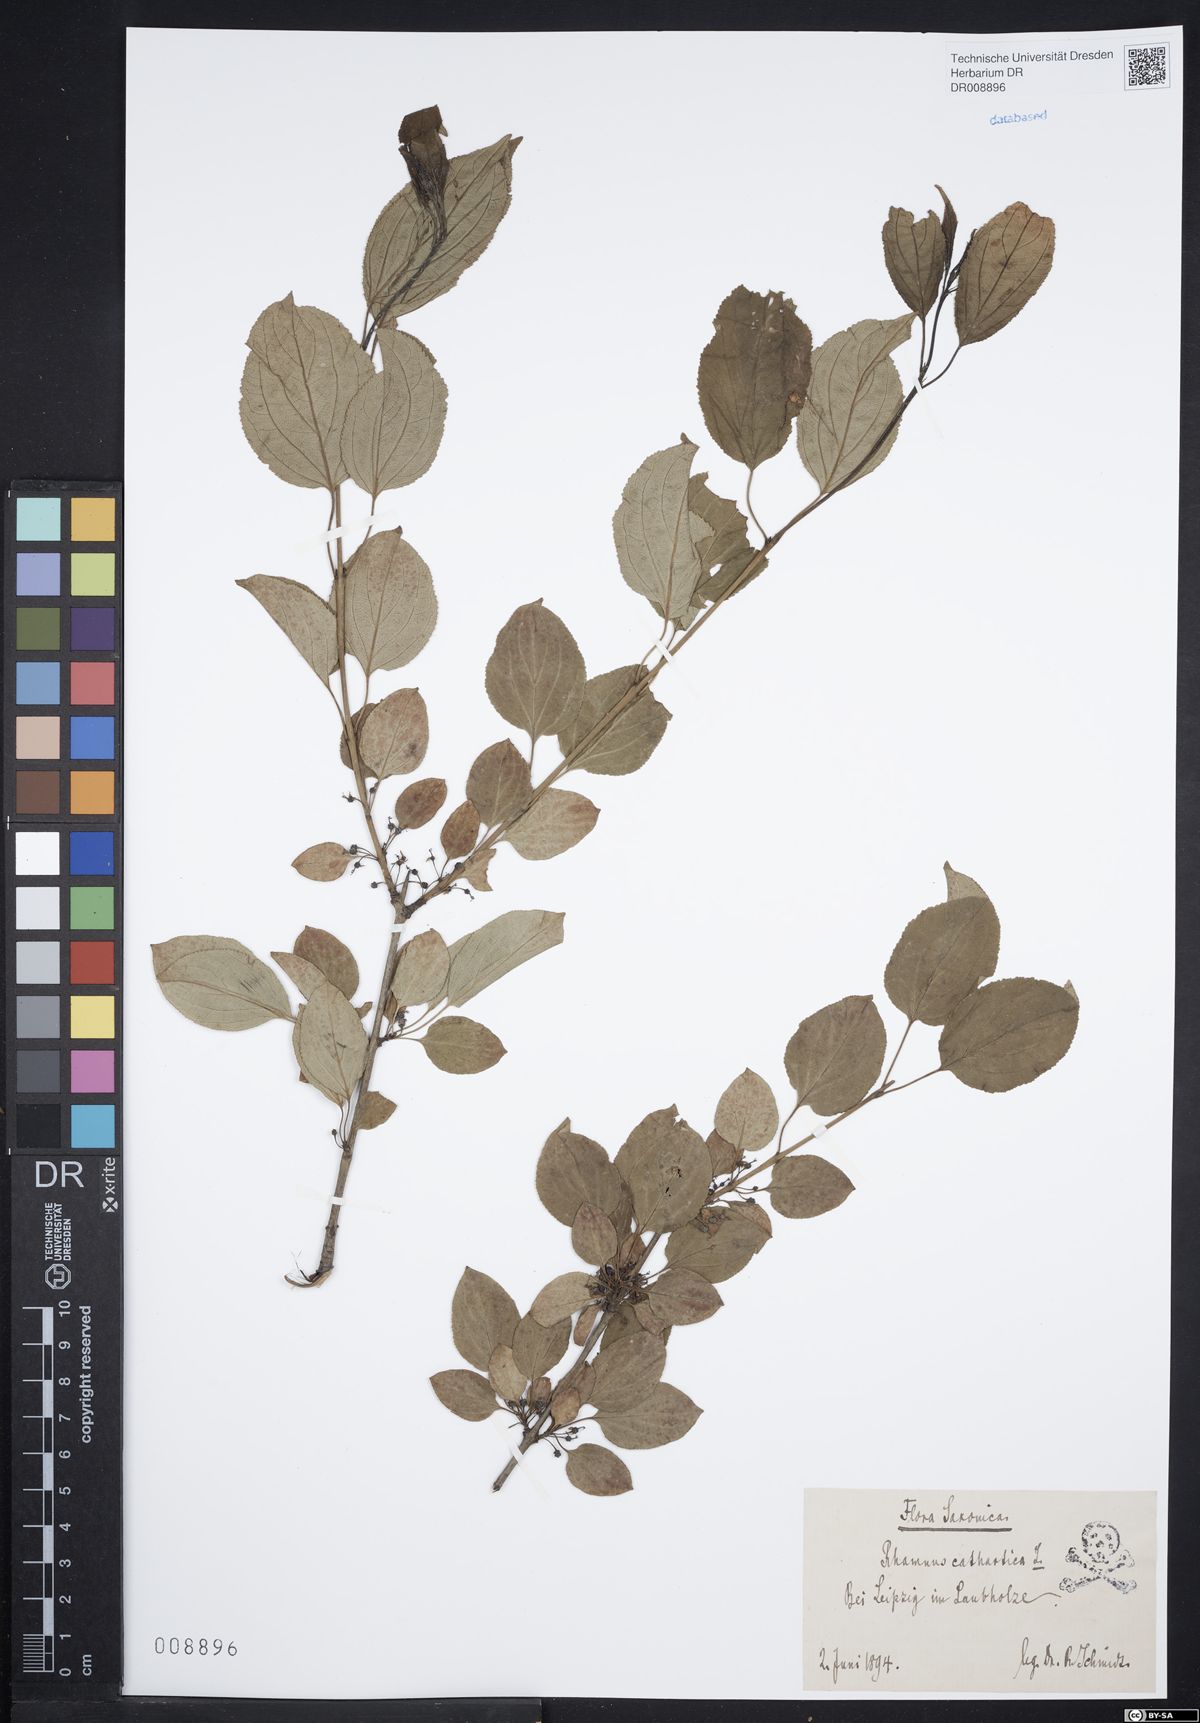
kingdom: Plantae
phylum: Tracheophyta
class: Magnoliopsida
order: Rosales
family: Rhamnaceae
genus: Rhamnus
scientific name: Rhamnus cathartica
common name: Common buckthorn
